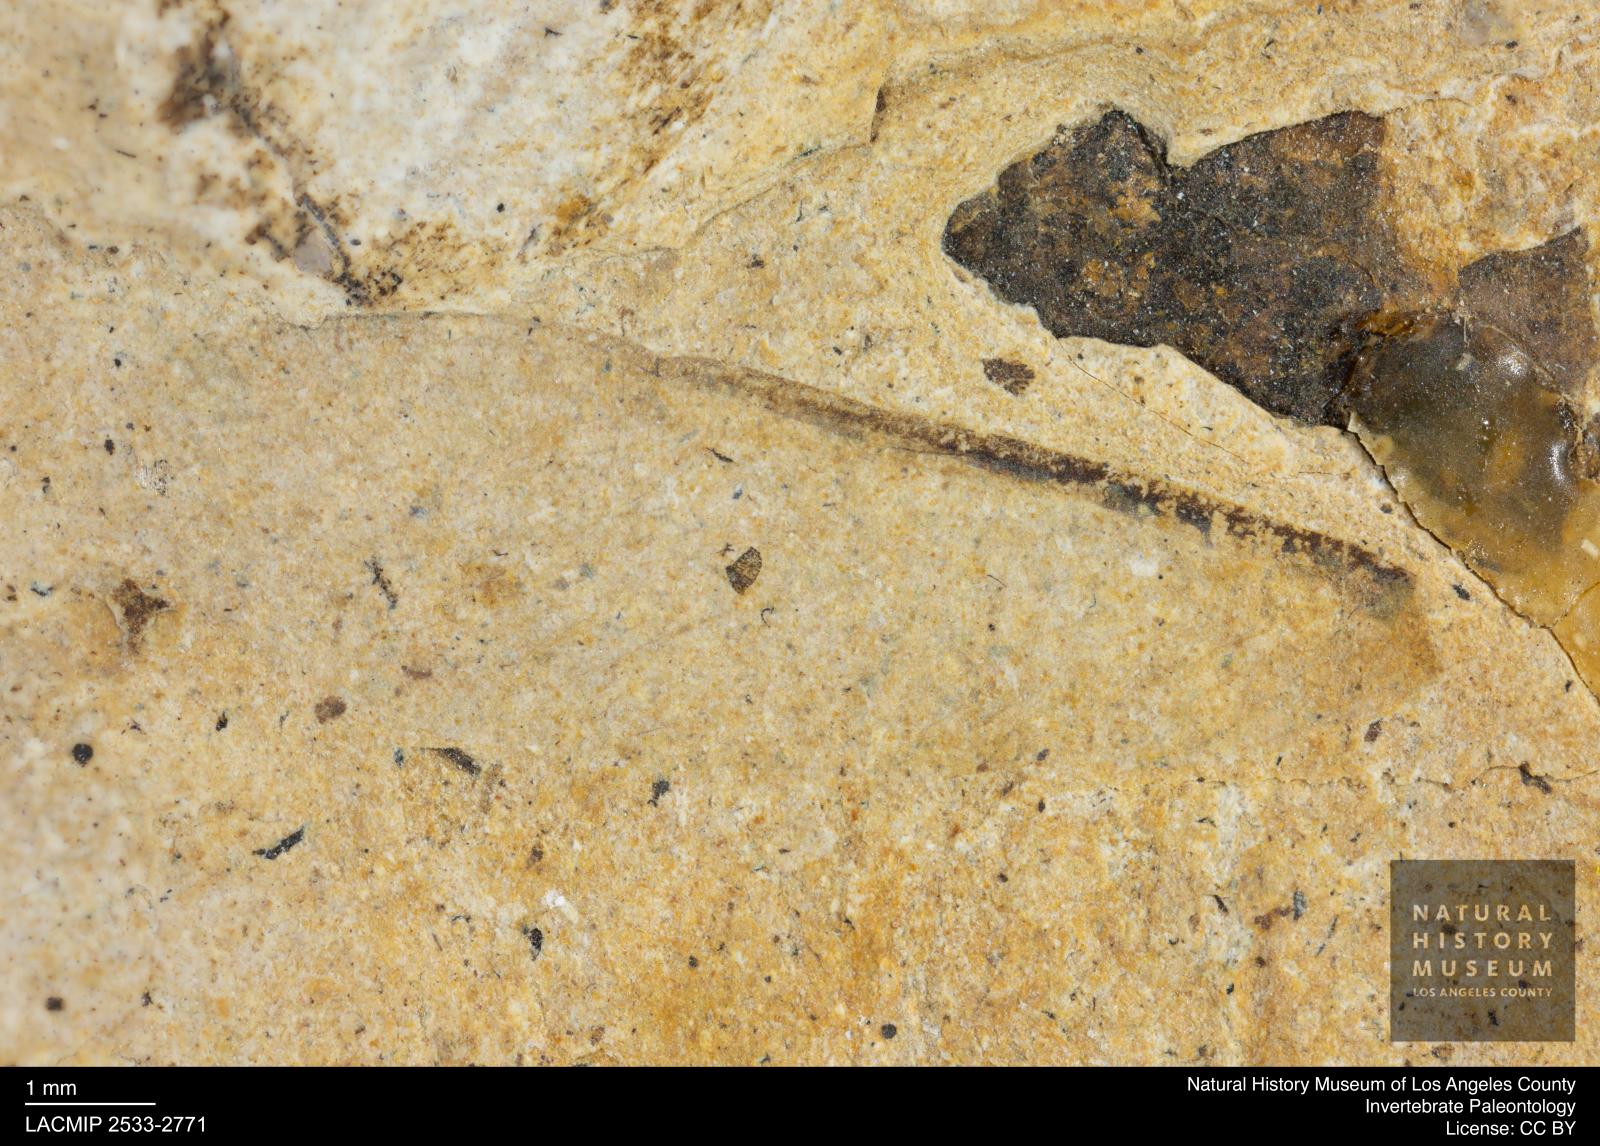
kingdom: Animalia
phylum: Arthropoda
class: Insecta
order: Blattodea
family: Hodotermitidae
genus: Ulmeriella
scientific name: Ulmeriella bauckhorni
